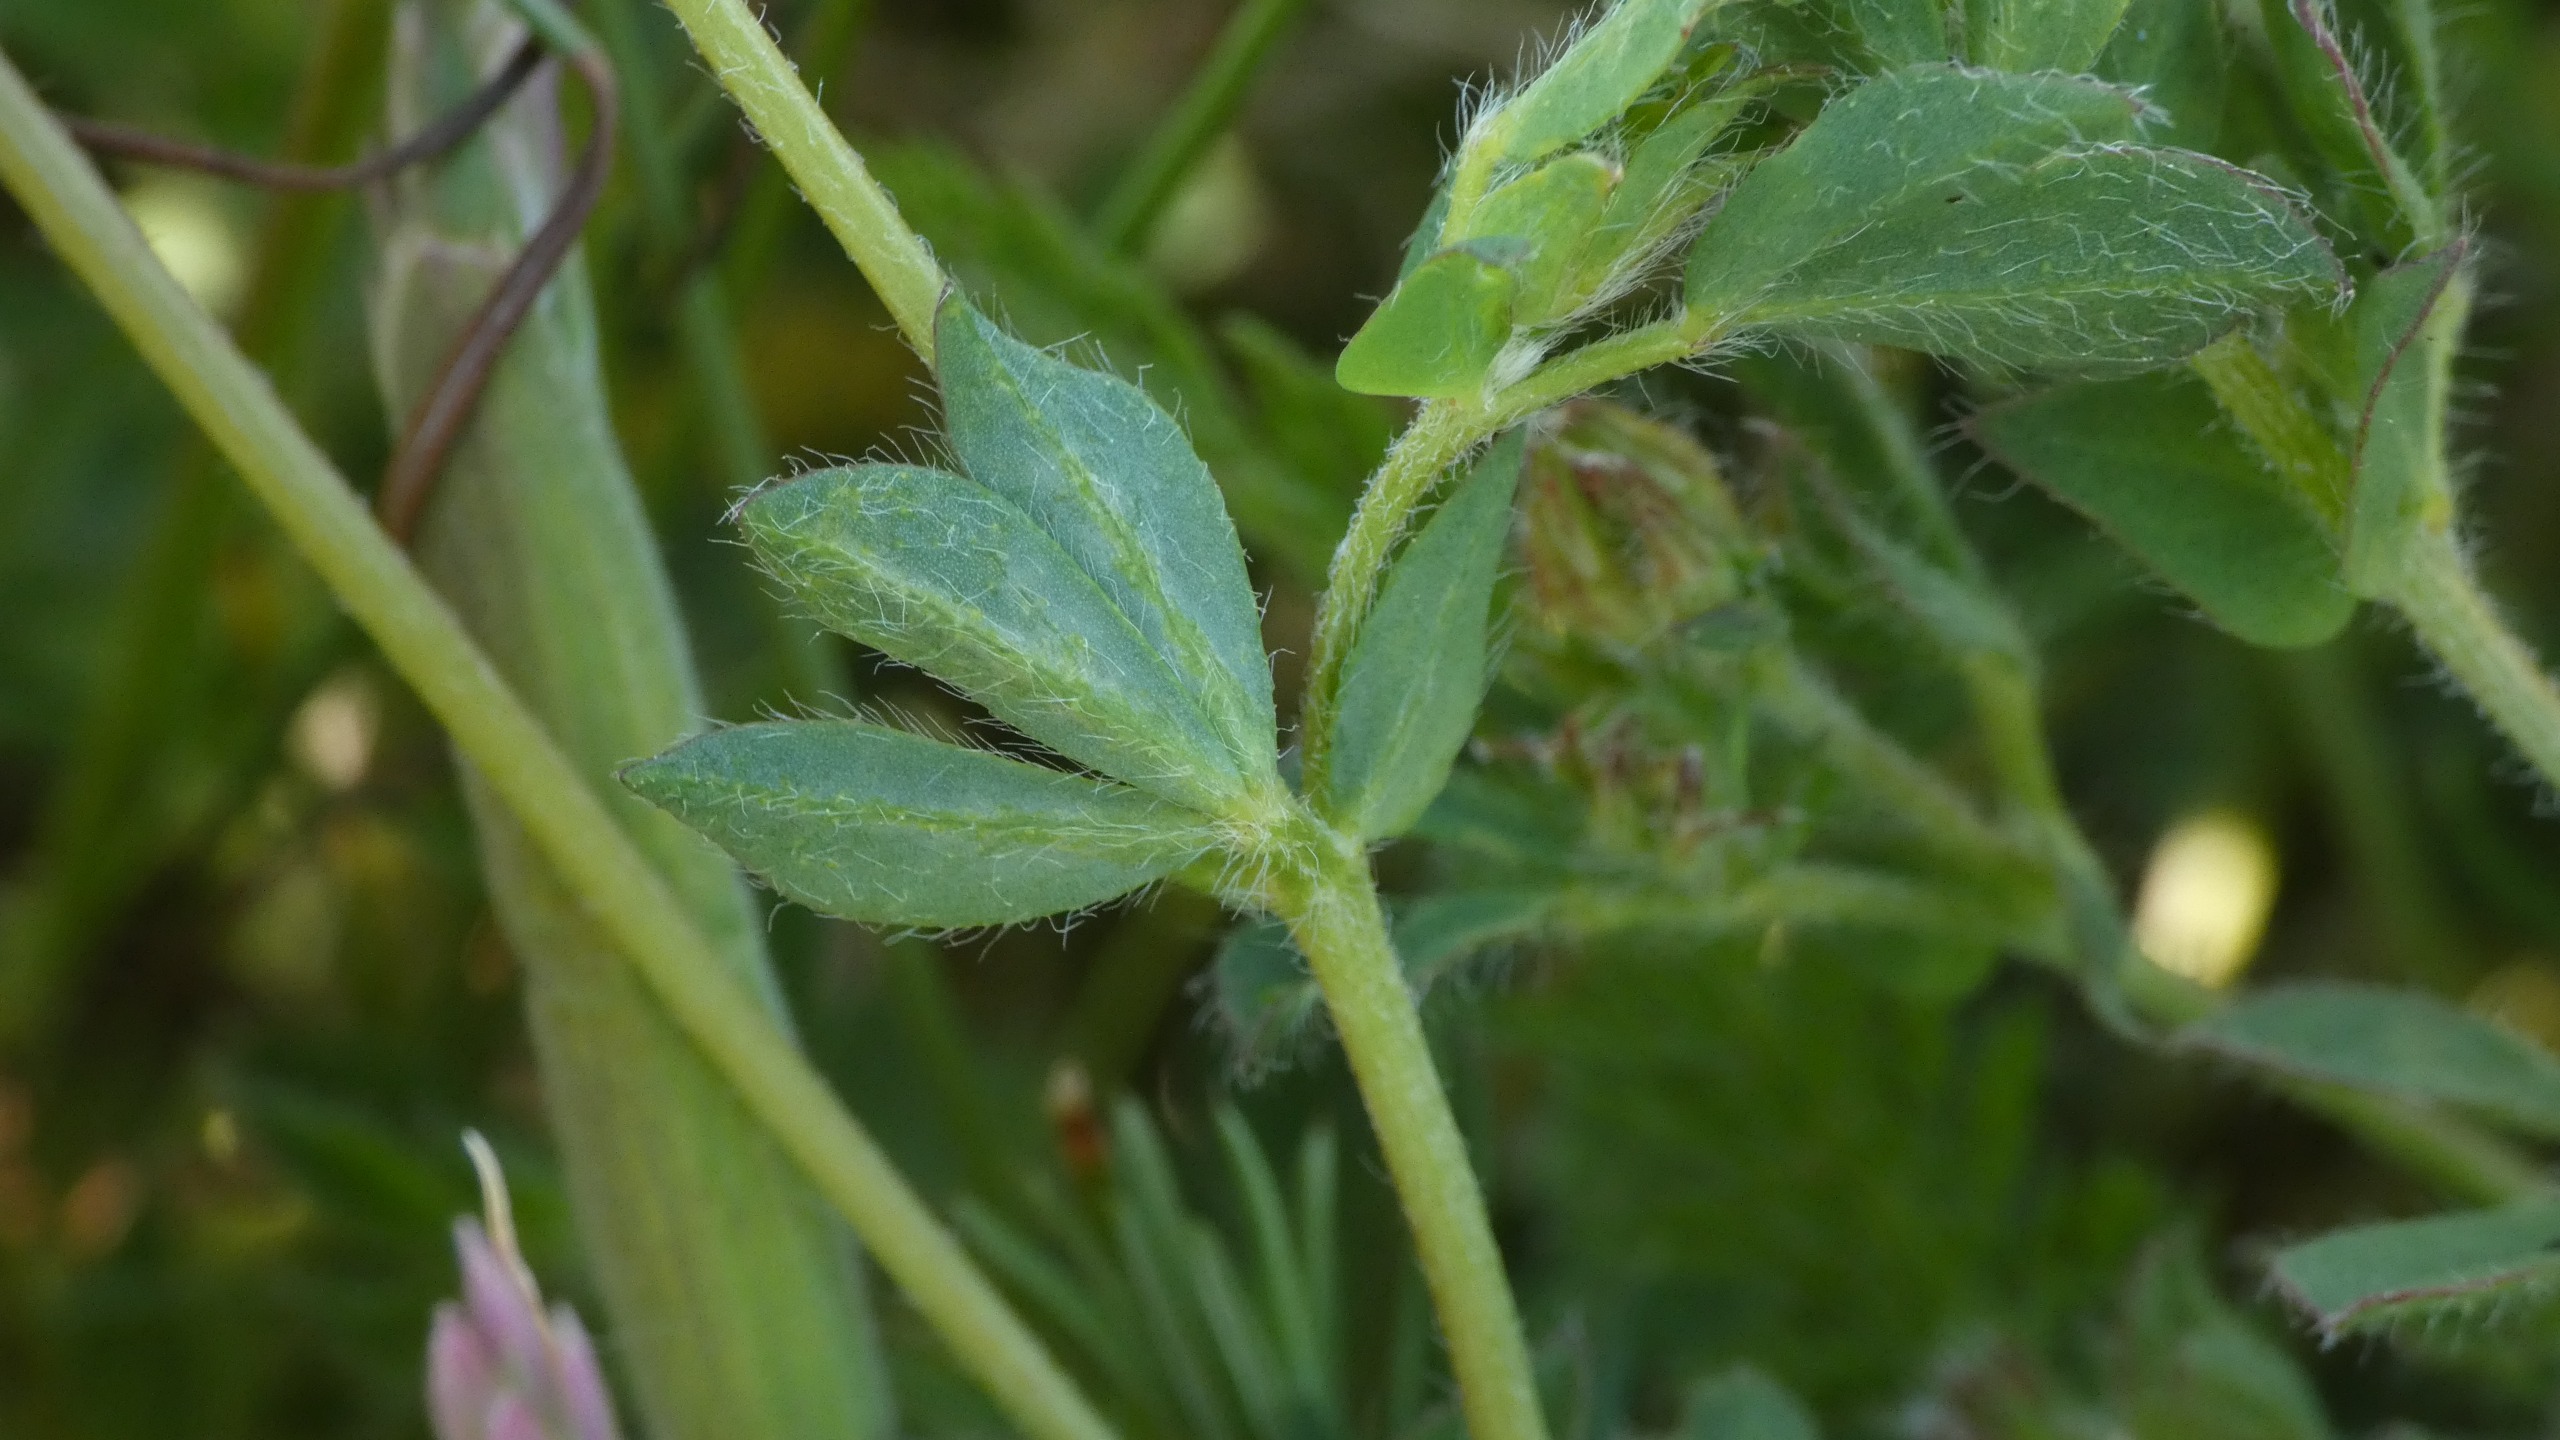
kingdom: Plantae
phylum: Tracheophyta
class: Magnoliopsida
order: Fabales
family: Fabaceae
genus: Lotus
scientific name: Lotus corniculatus
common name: Almindelig kællingetand
